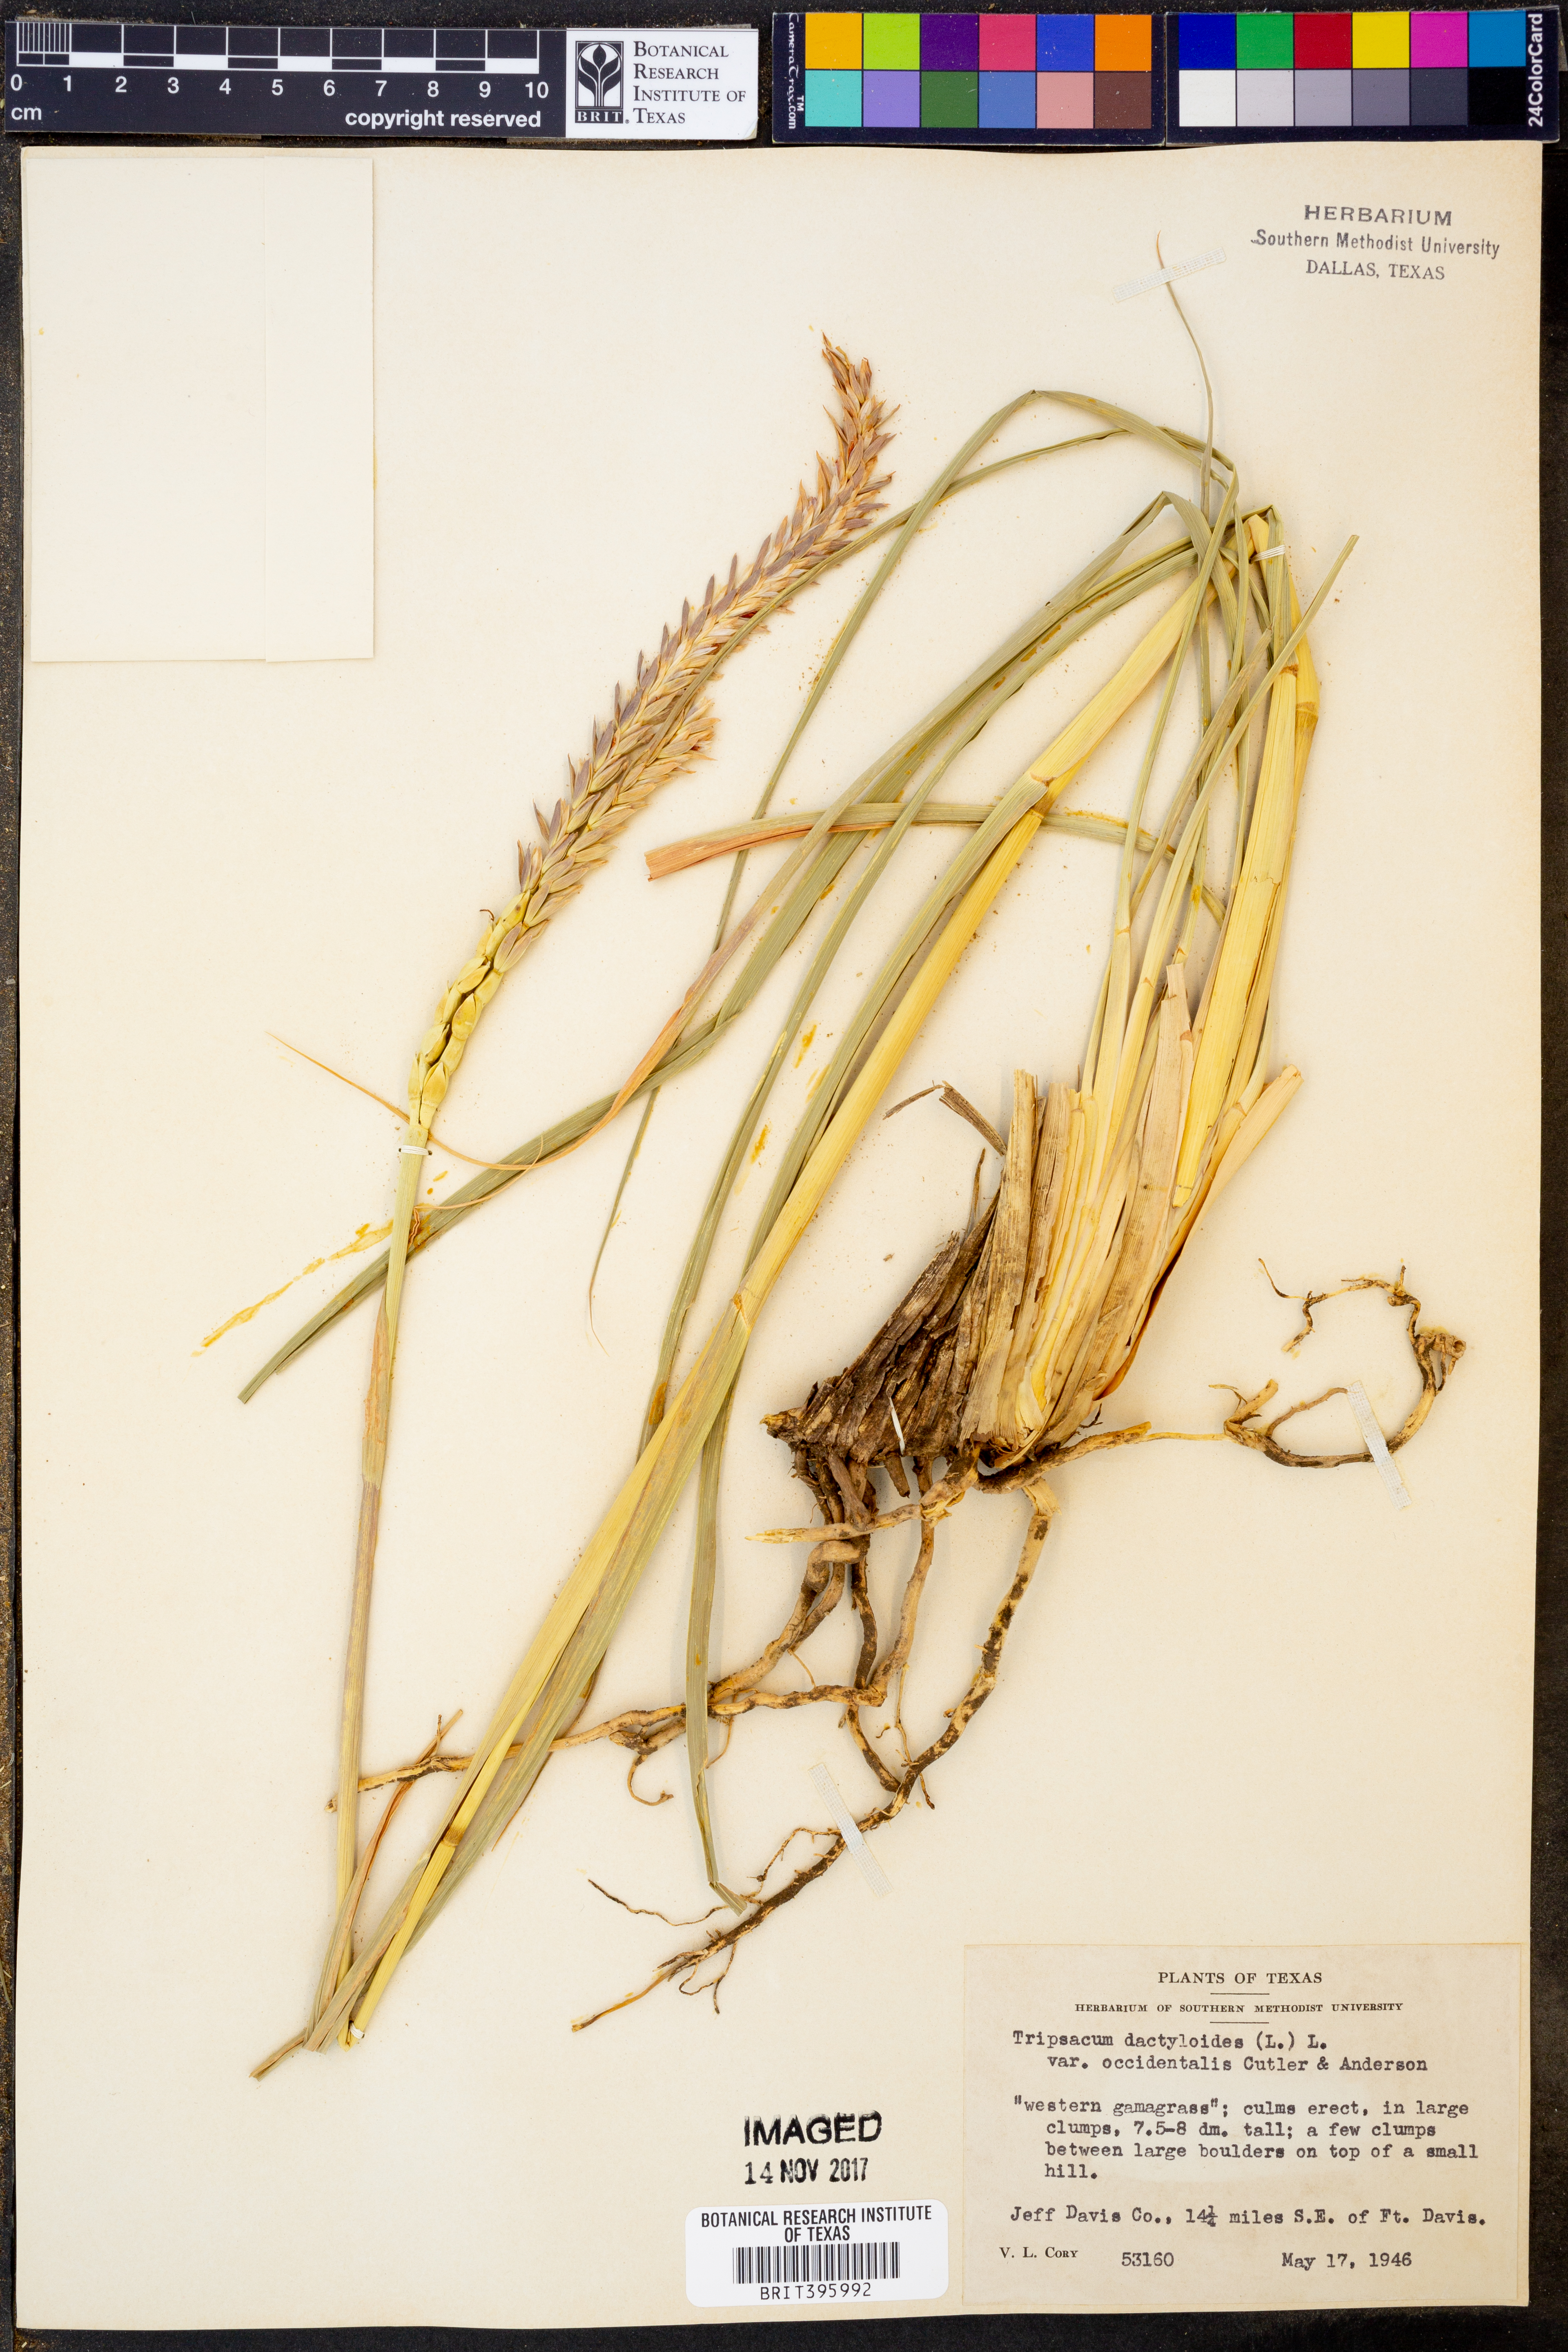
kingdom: Plantae
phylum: Tracheophyta
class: Liliopsida
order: Poales
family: Poaceae
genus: Tripsacum
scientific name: Tripsacum dactyloides
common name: Buffalo-grass
